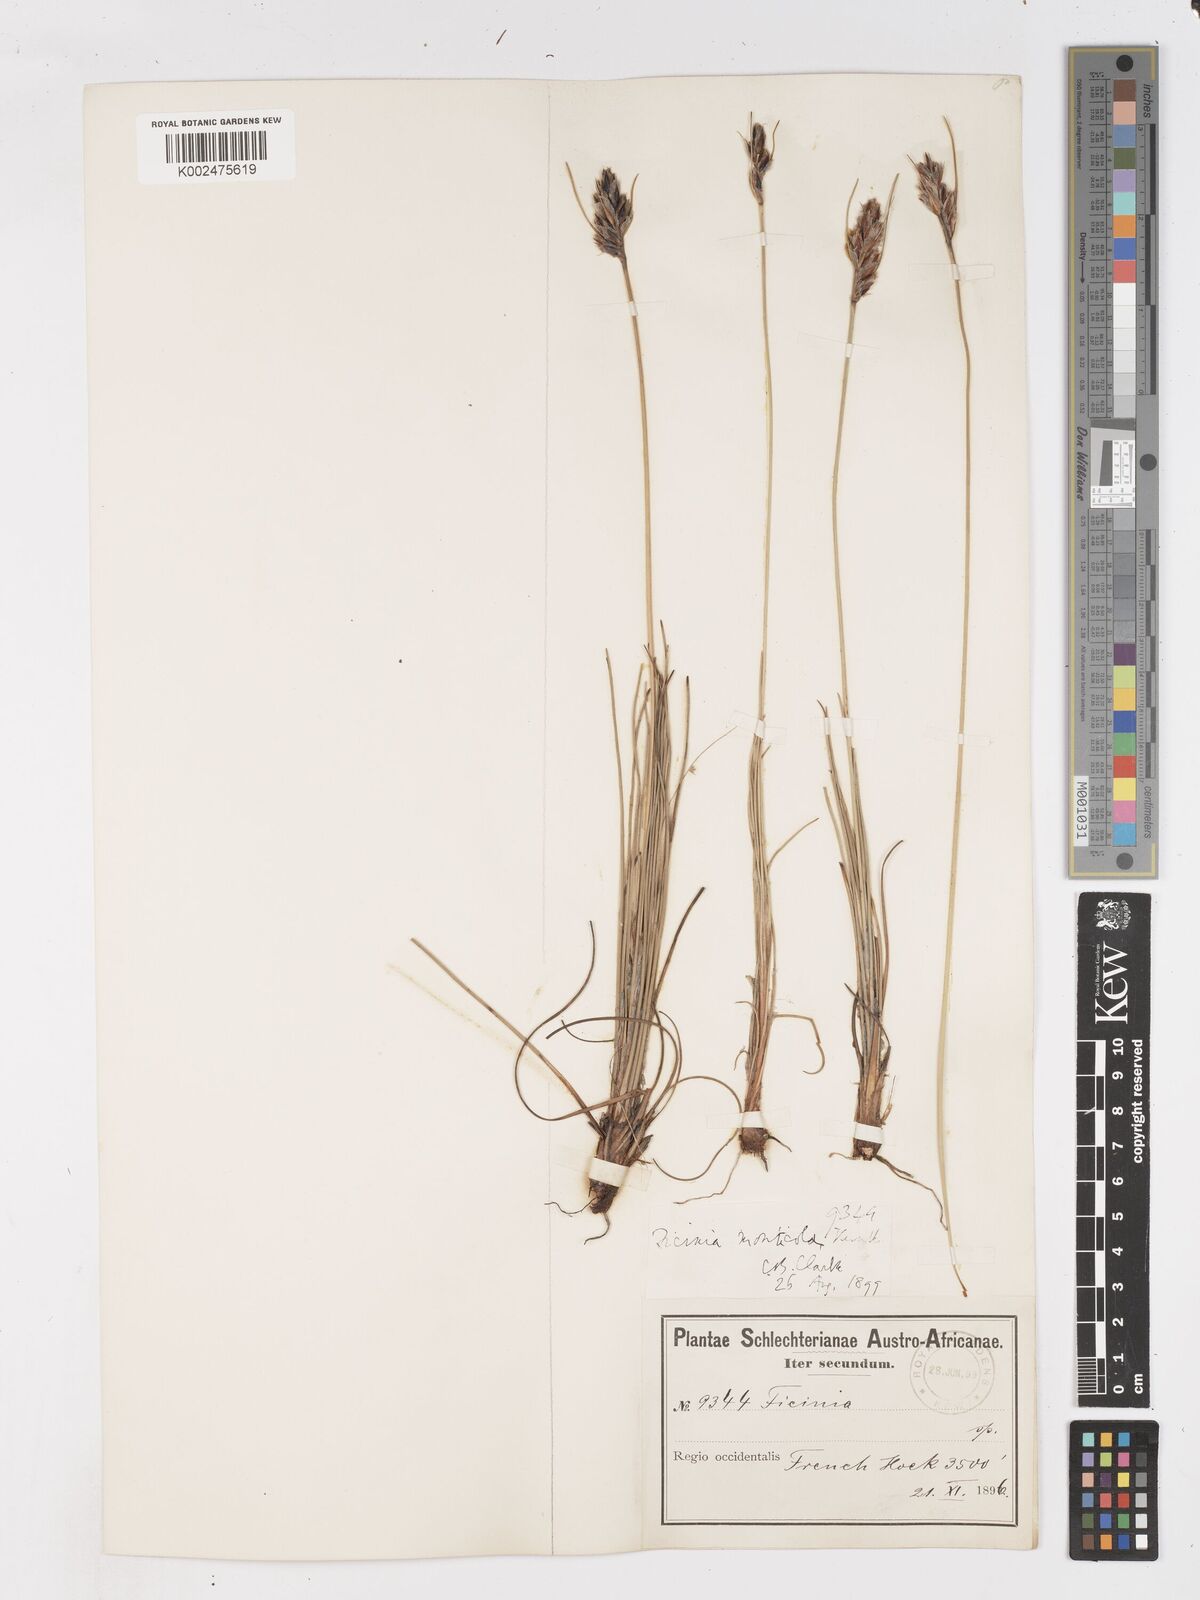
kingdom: Plantae
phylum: Tracheophyta
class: Liliopsida
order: Poales
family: Cyperaceae
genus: Ficinia
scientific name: Ficinia monticola
